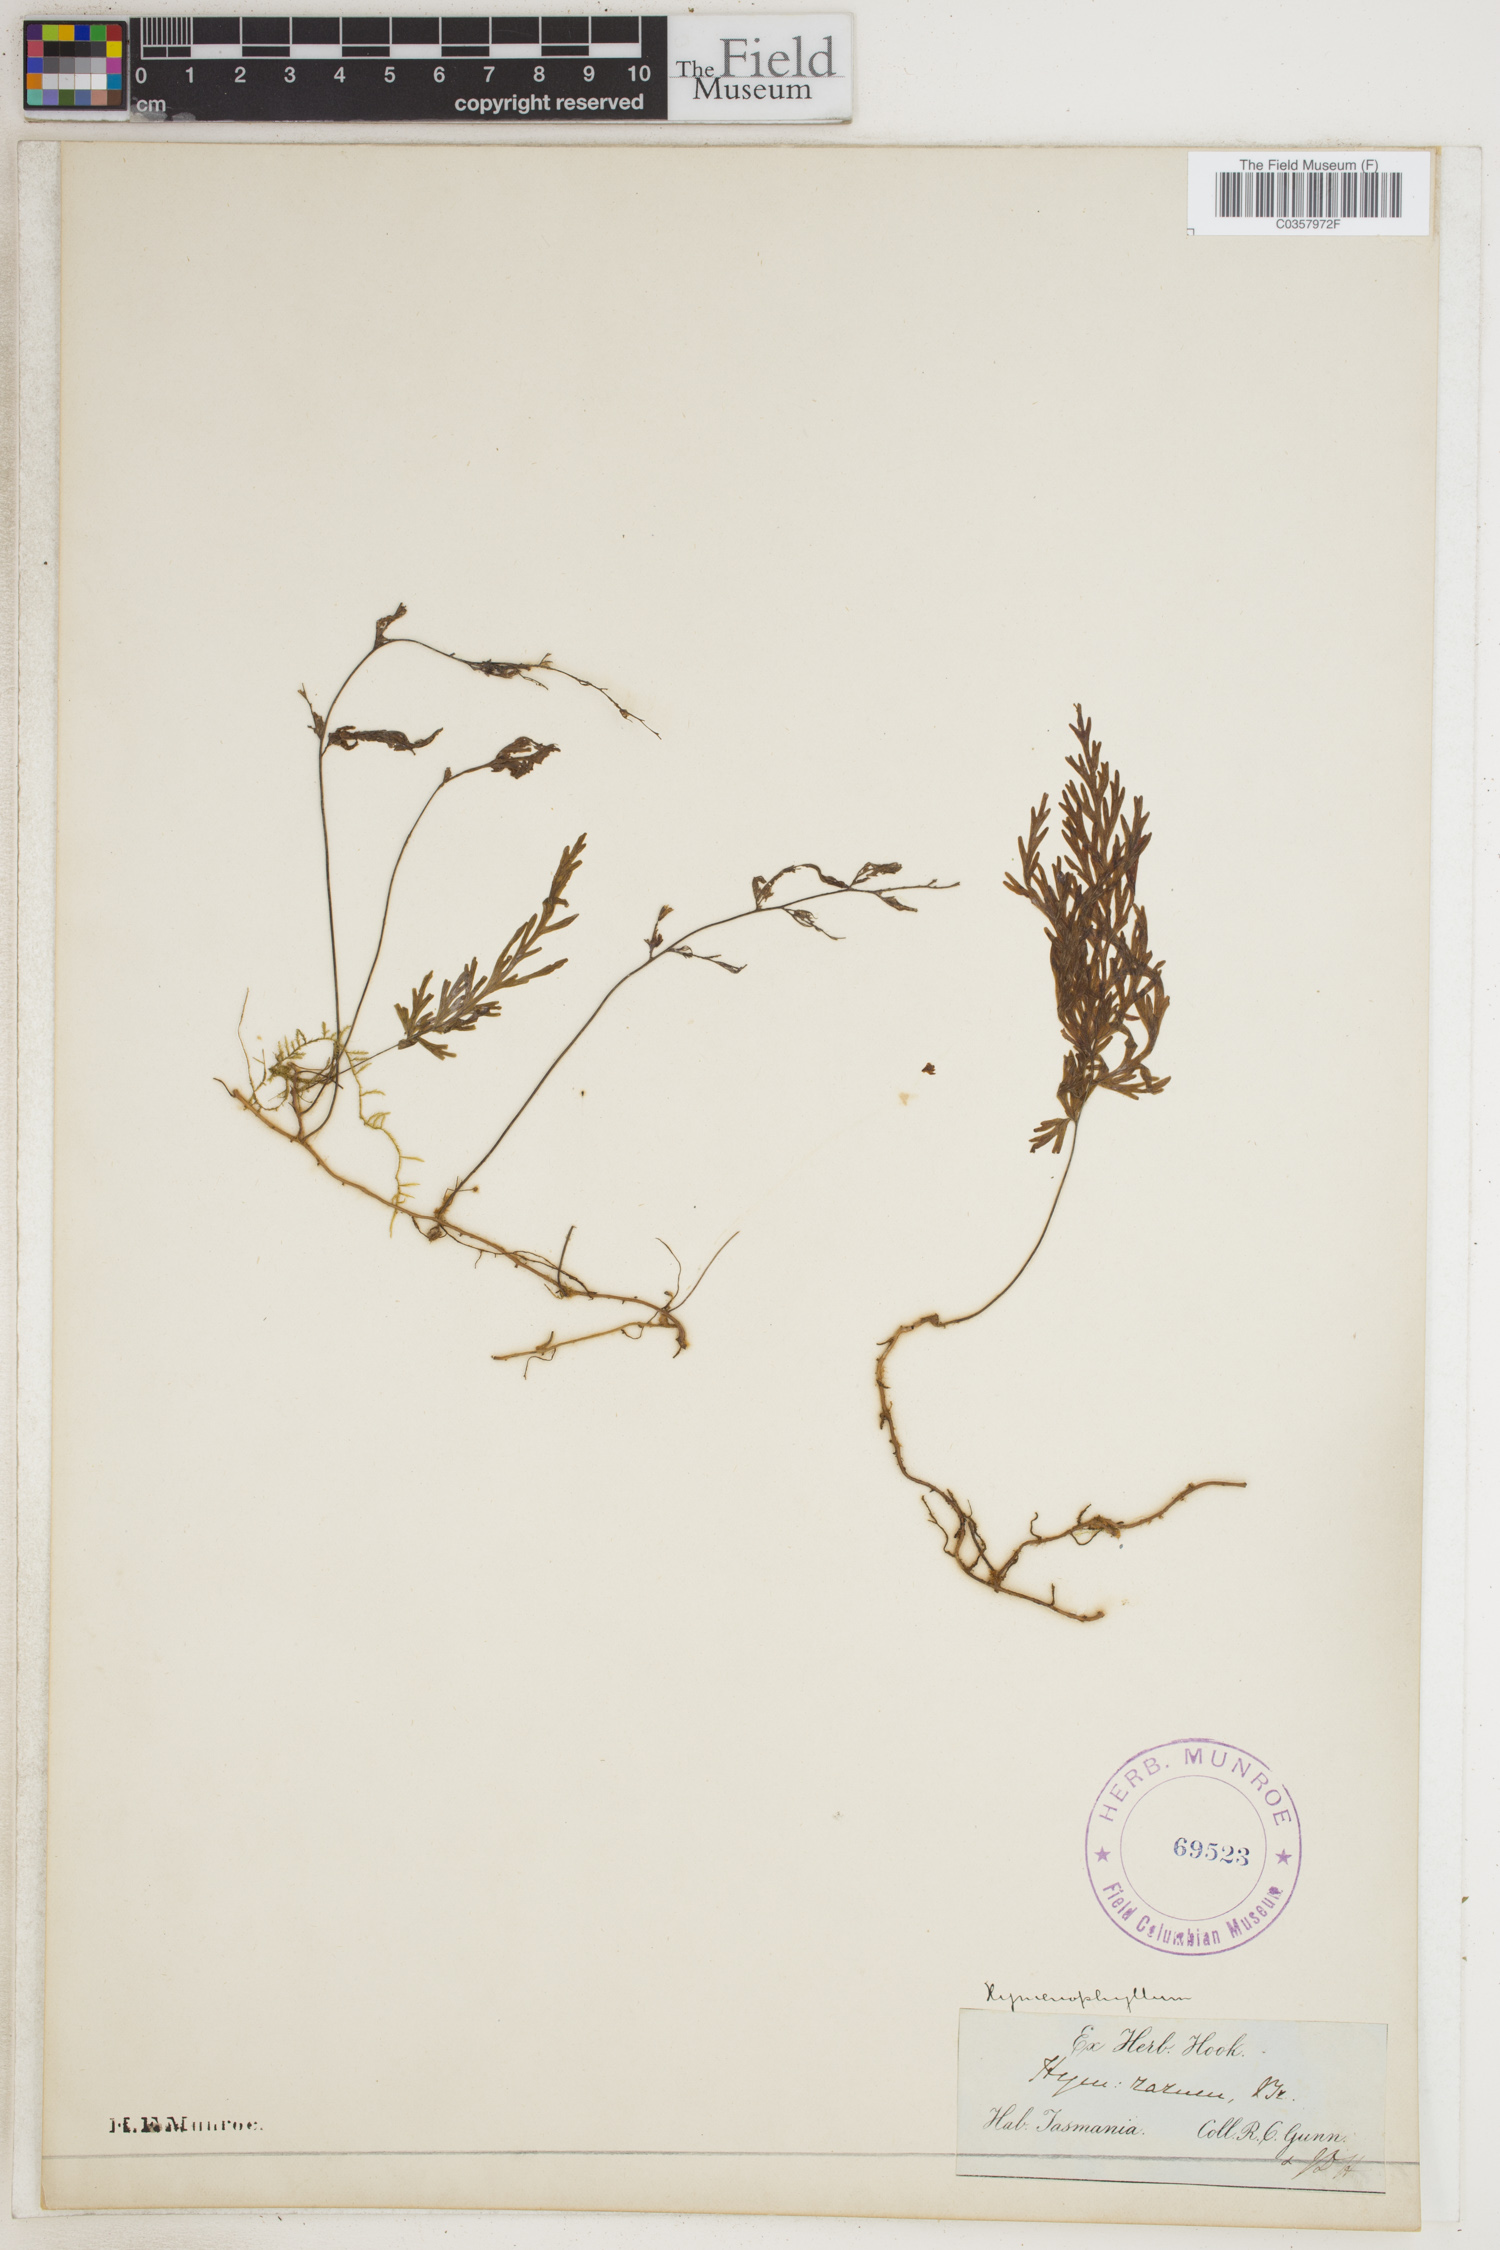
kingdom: Plantae
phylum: Tracheophyta
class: Polypodiopsida
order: Hymenophyllales
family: Hymenophyllaceae
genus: Hymenophyllum
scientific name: Hymenophyllum rarum
